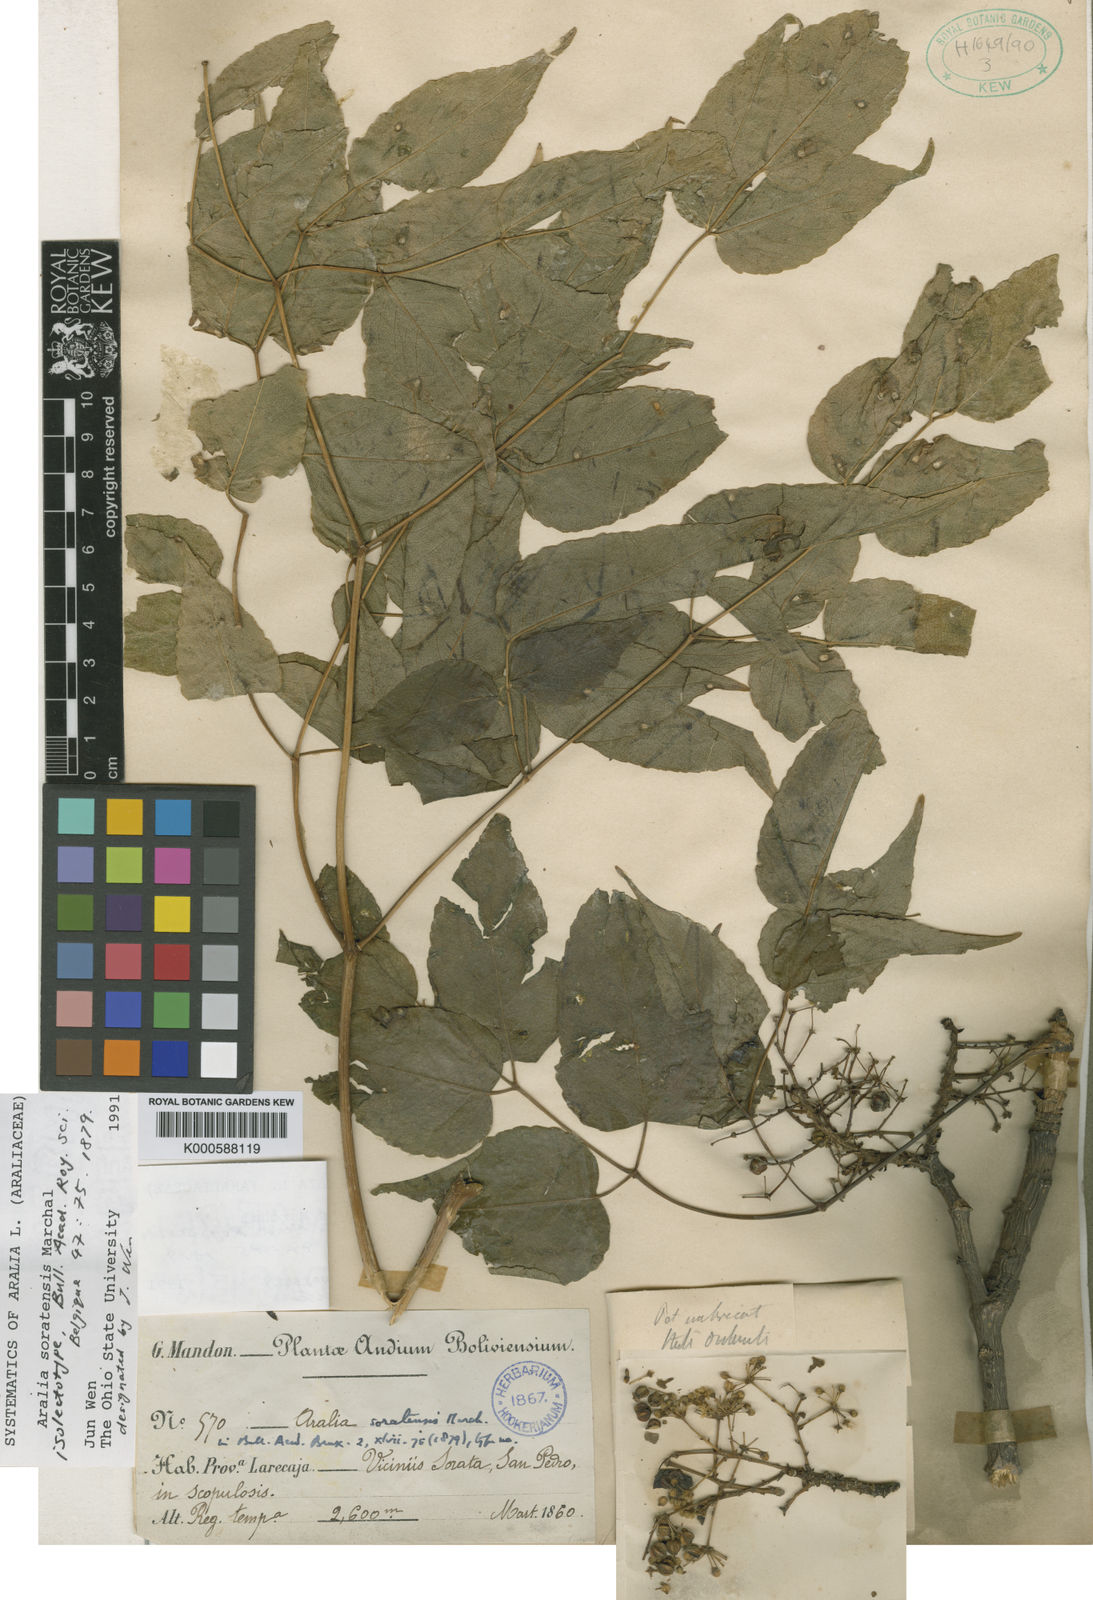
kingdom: Plantae
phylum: Tracheophyta
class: Magnoliopsida
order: Apiales
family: Araliaceae
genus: Aralia
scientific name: Aralia soratensis
